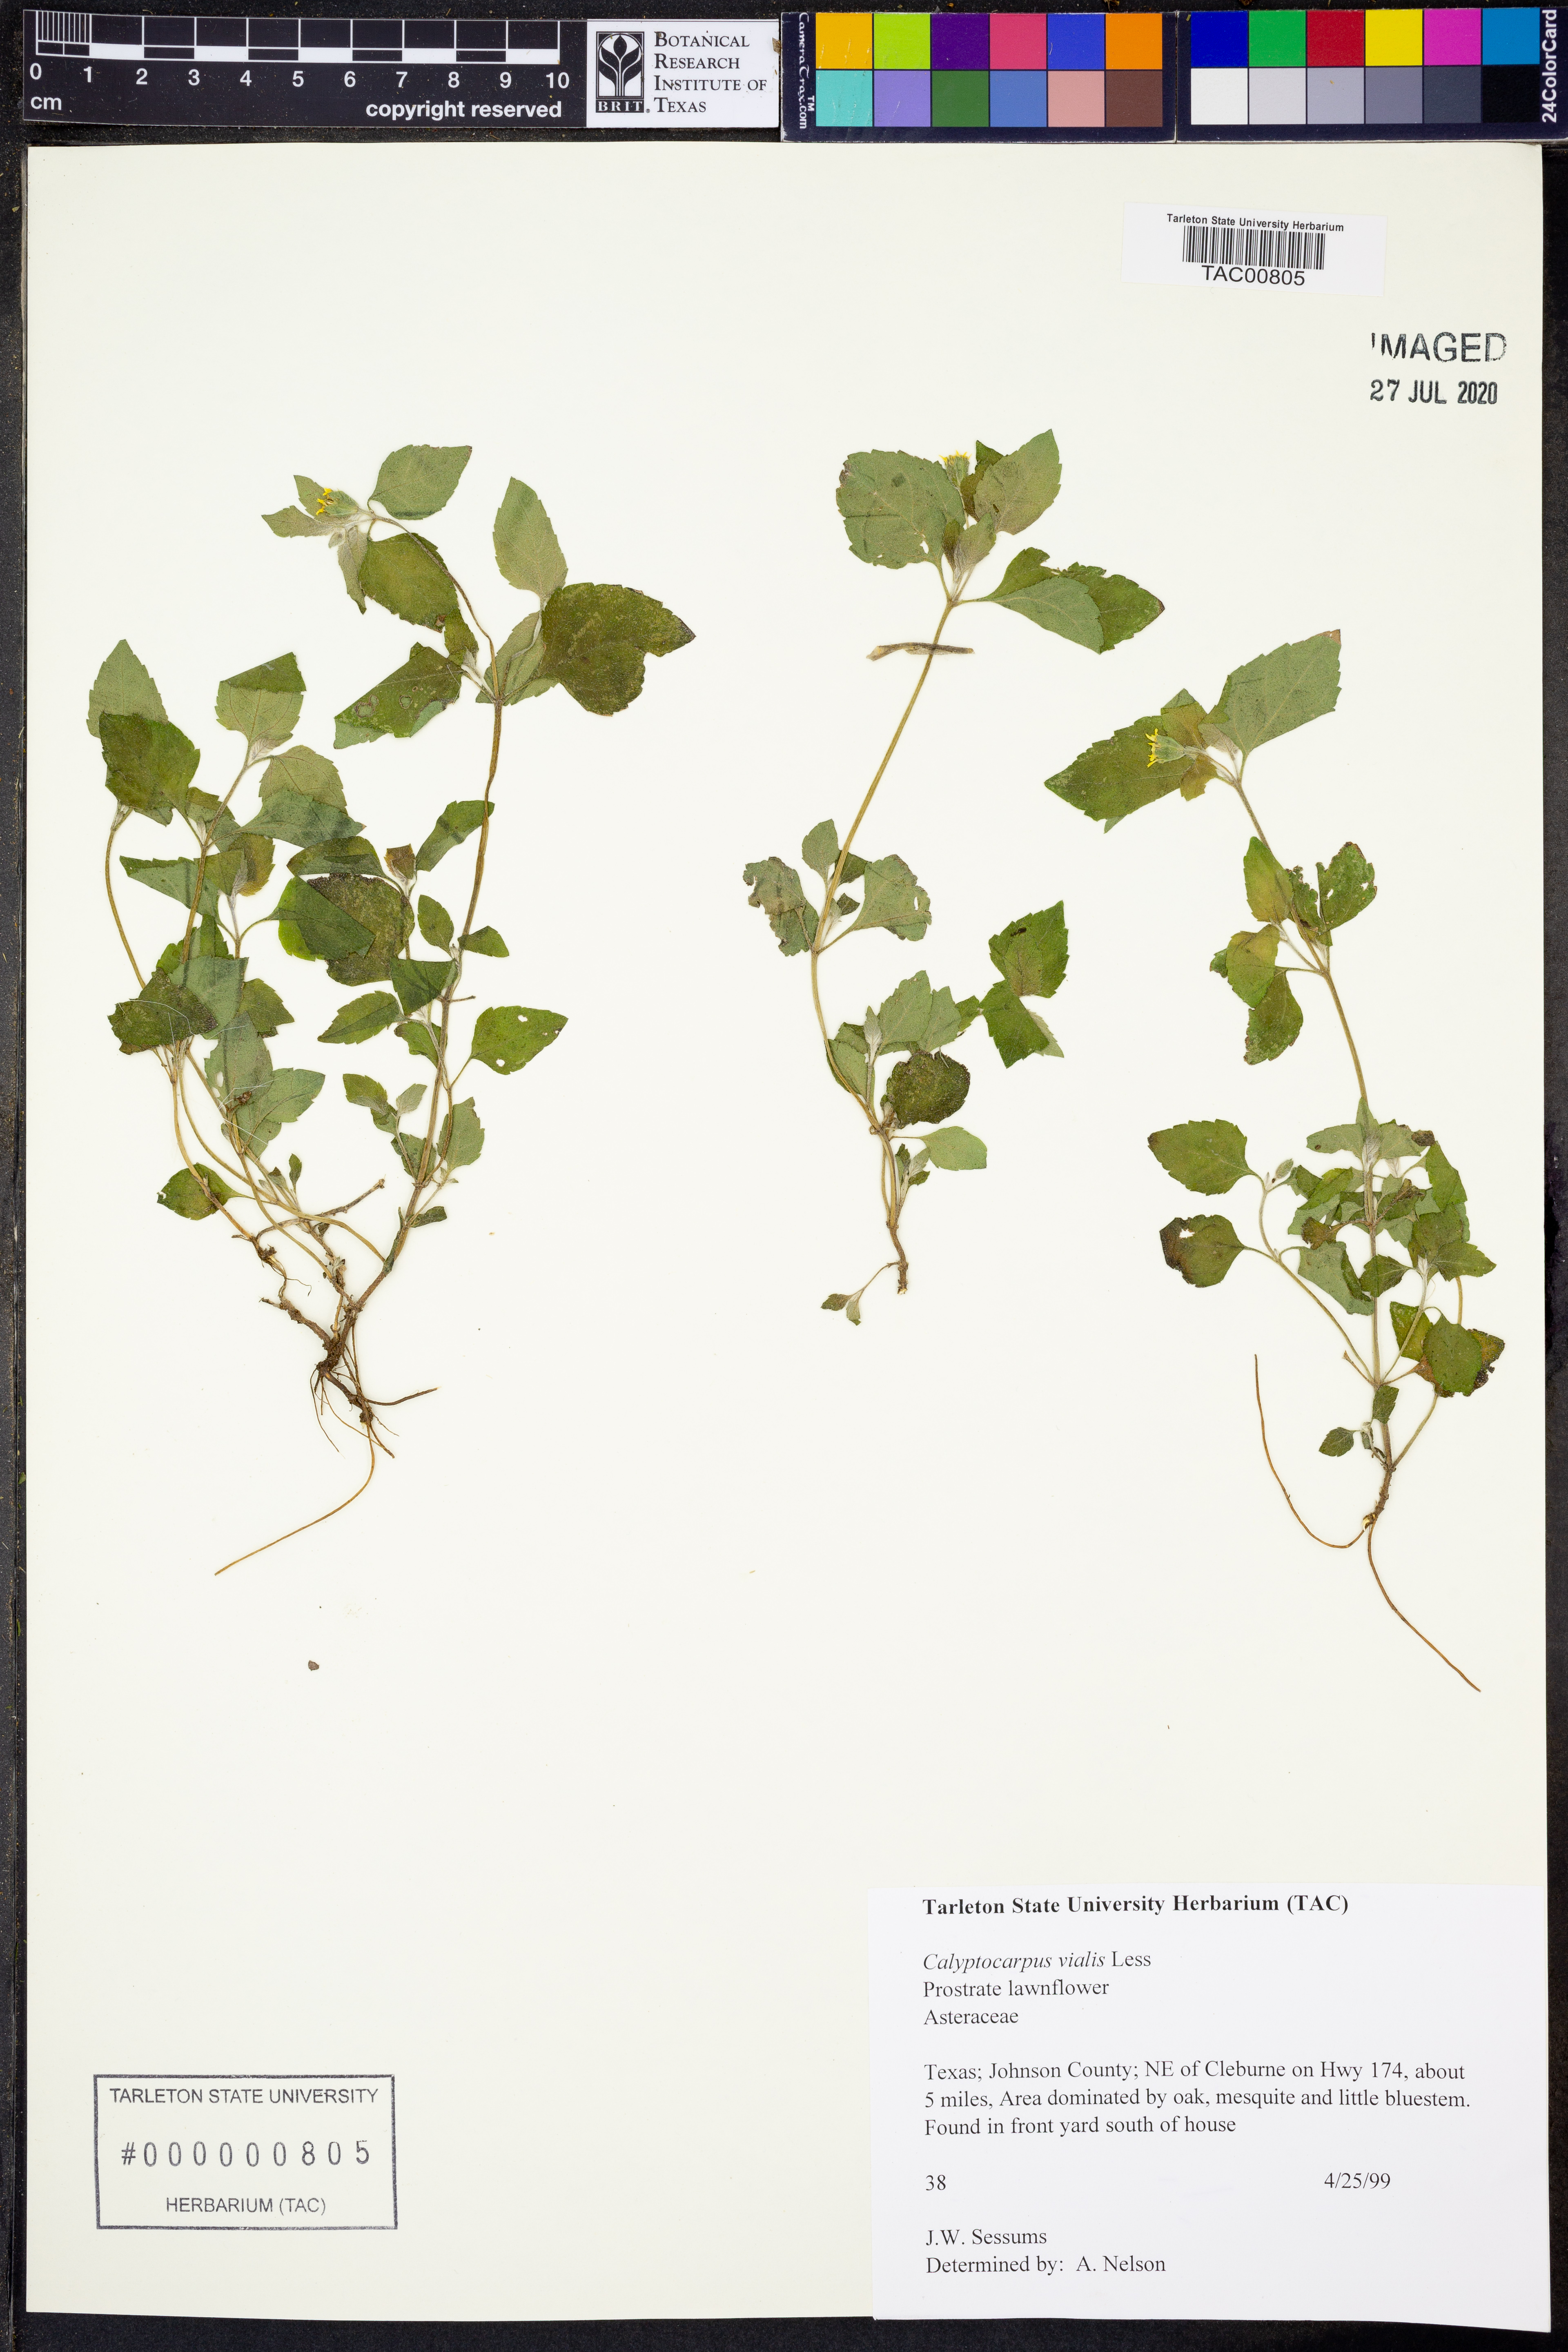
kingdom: Plantae
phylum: Tracheophyta
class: Magnoliopsida
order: Asterales
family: Asteraceae
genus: Calyptocarpus
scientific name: Calyptocarpus vialis
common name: Straggler daisy
